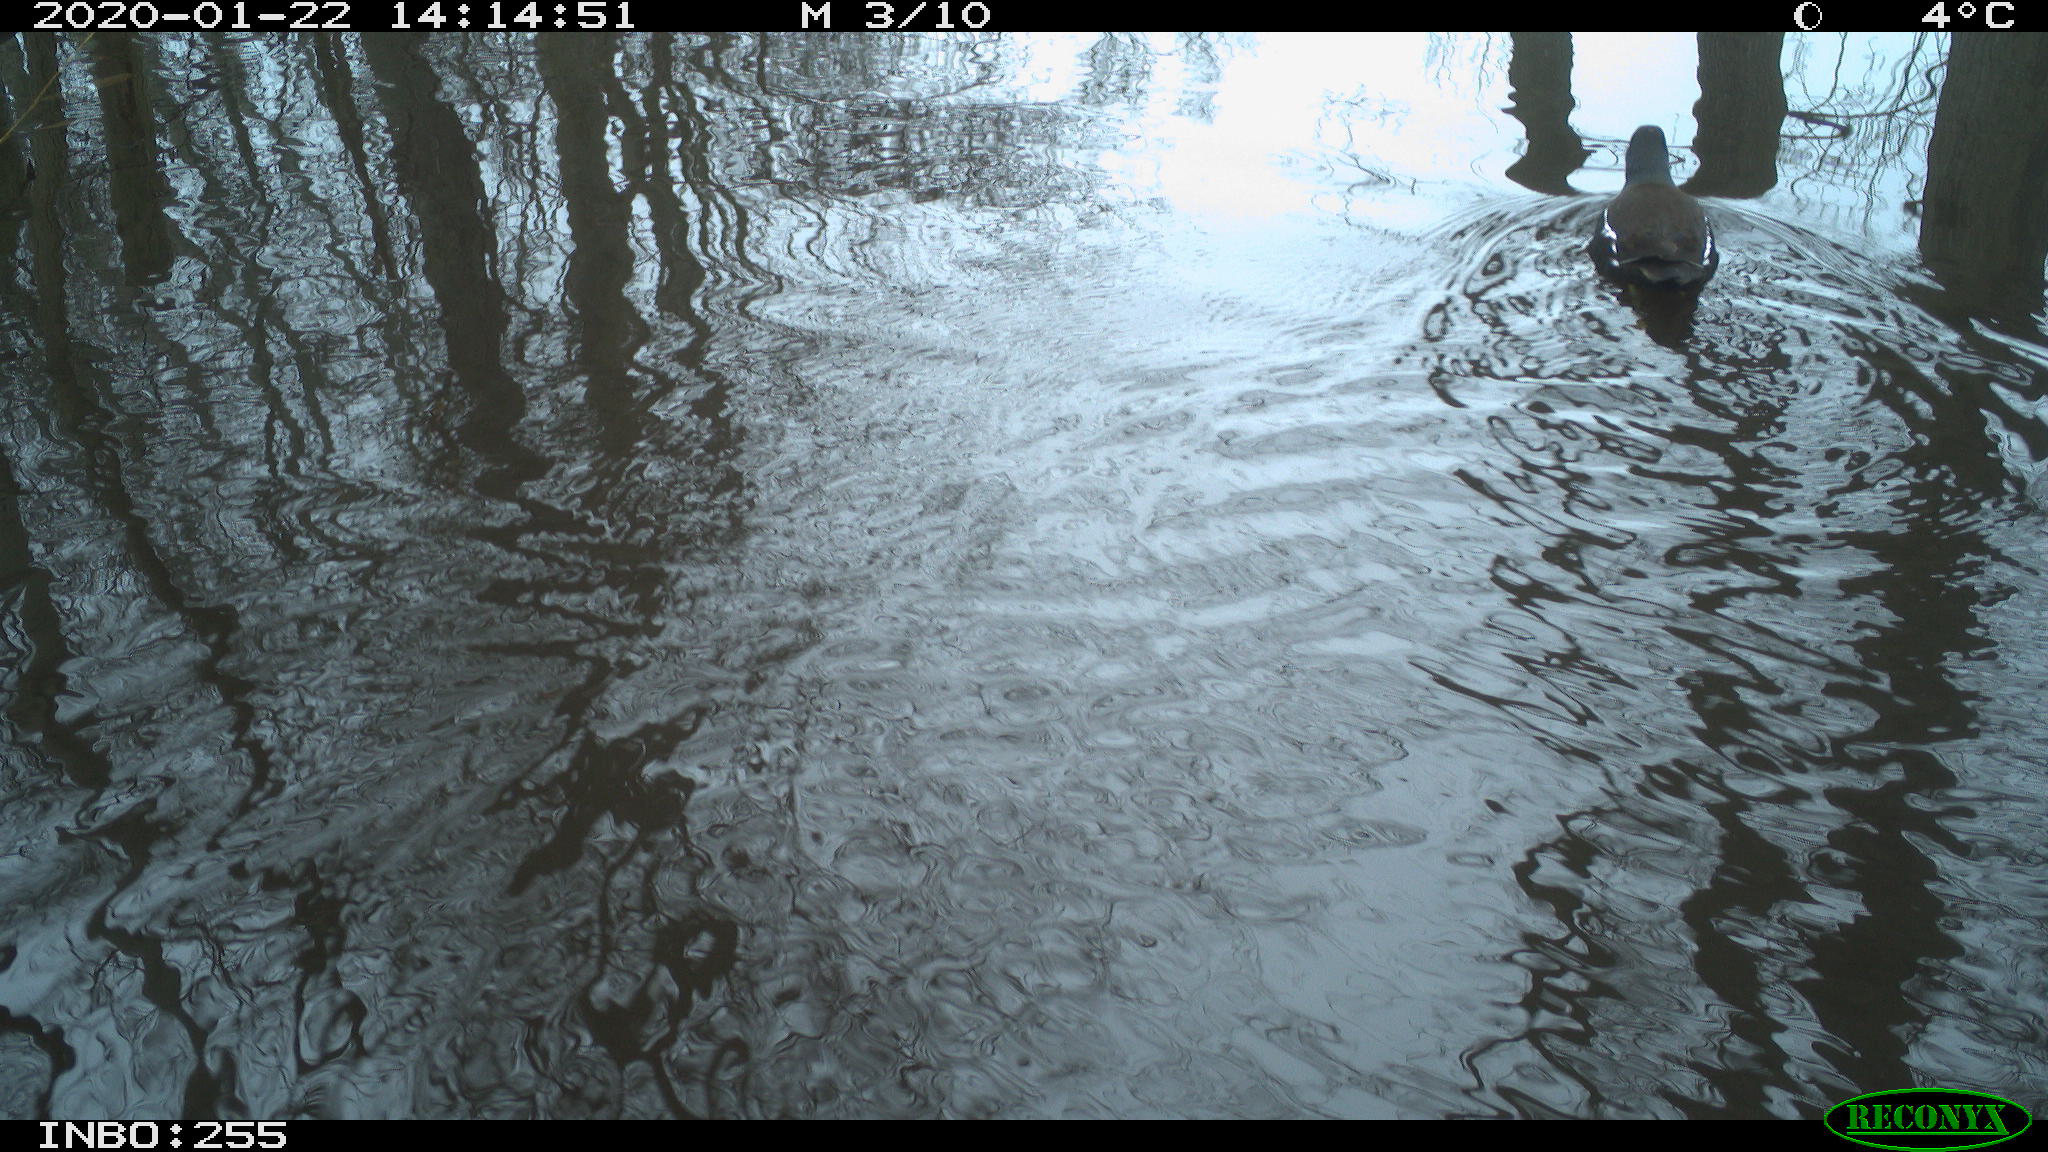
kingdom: Animalia
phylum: Chordata
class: Aves
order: Gruiformes
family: Rallidae
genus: Gallinula
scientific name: Gallinula chloropus
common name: Common moorhen
